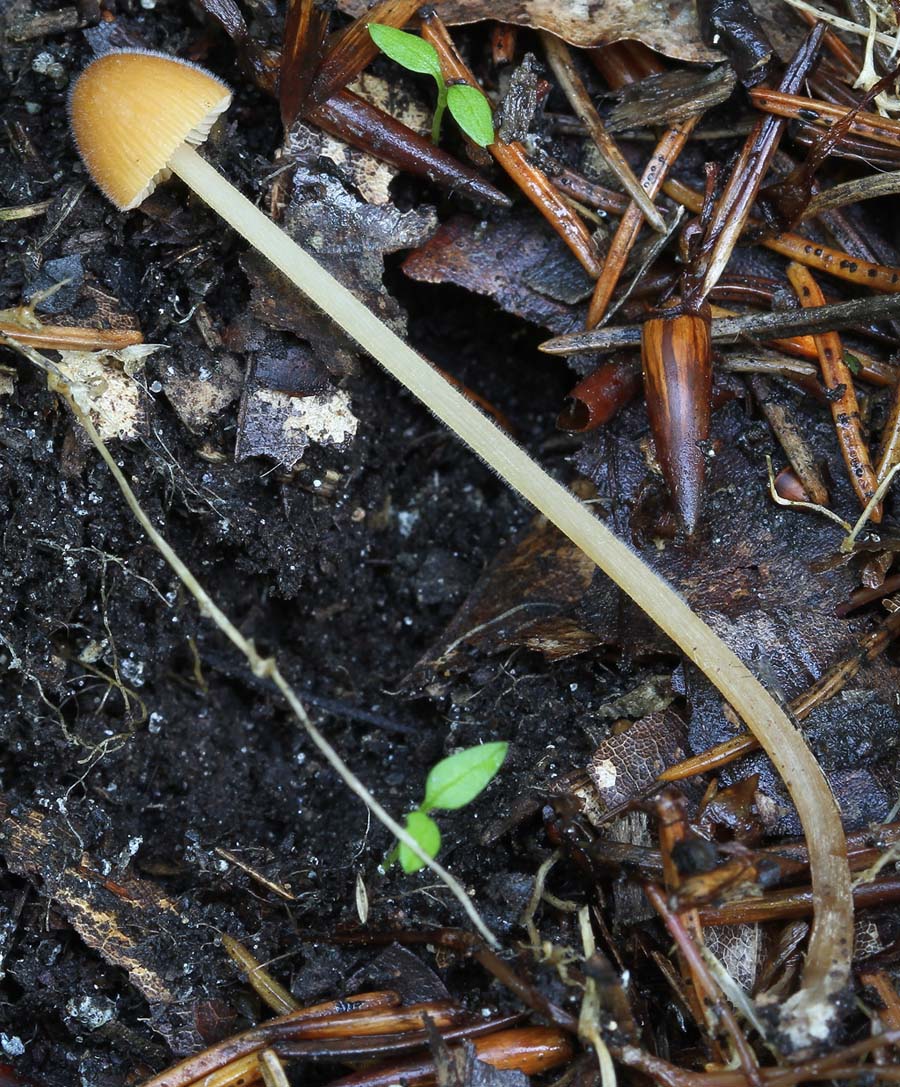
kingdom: Fungi
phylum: Basidiomycota
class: Agaricomycetes
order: Agaricales
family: Bolbitiaceae
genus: Conocybe
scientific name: Conocybe subpubescens
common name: krat-keglehat
